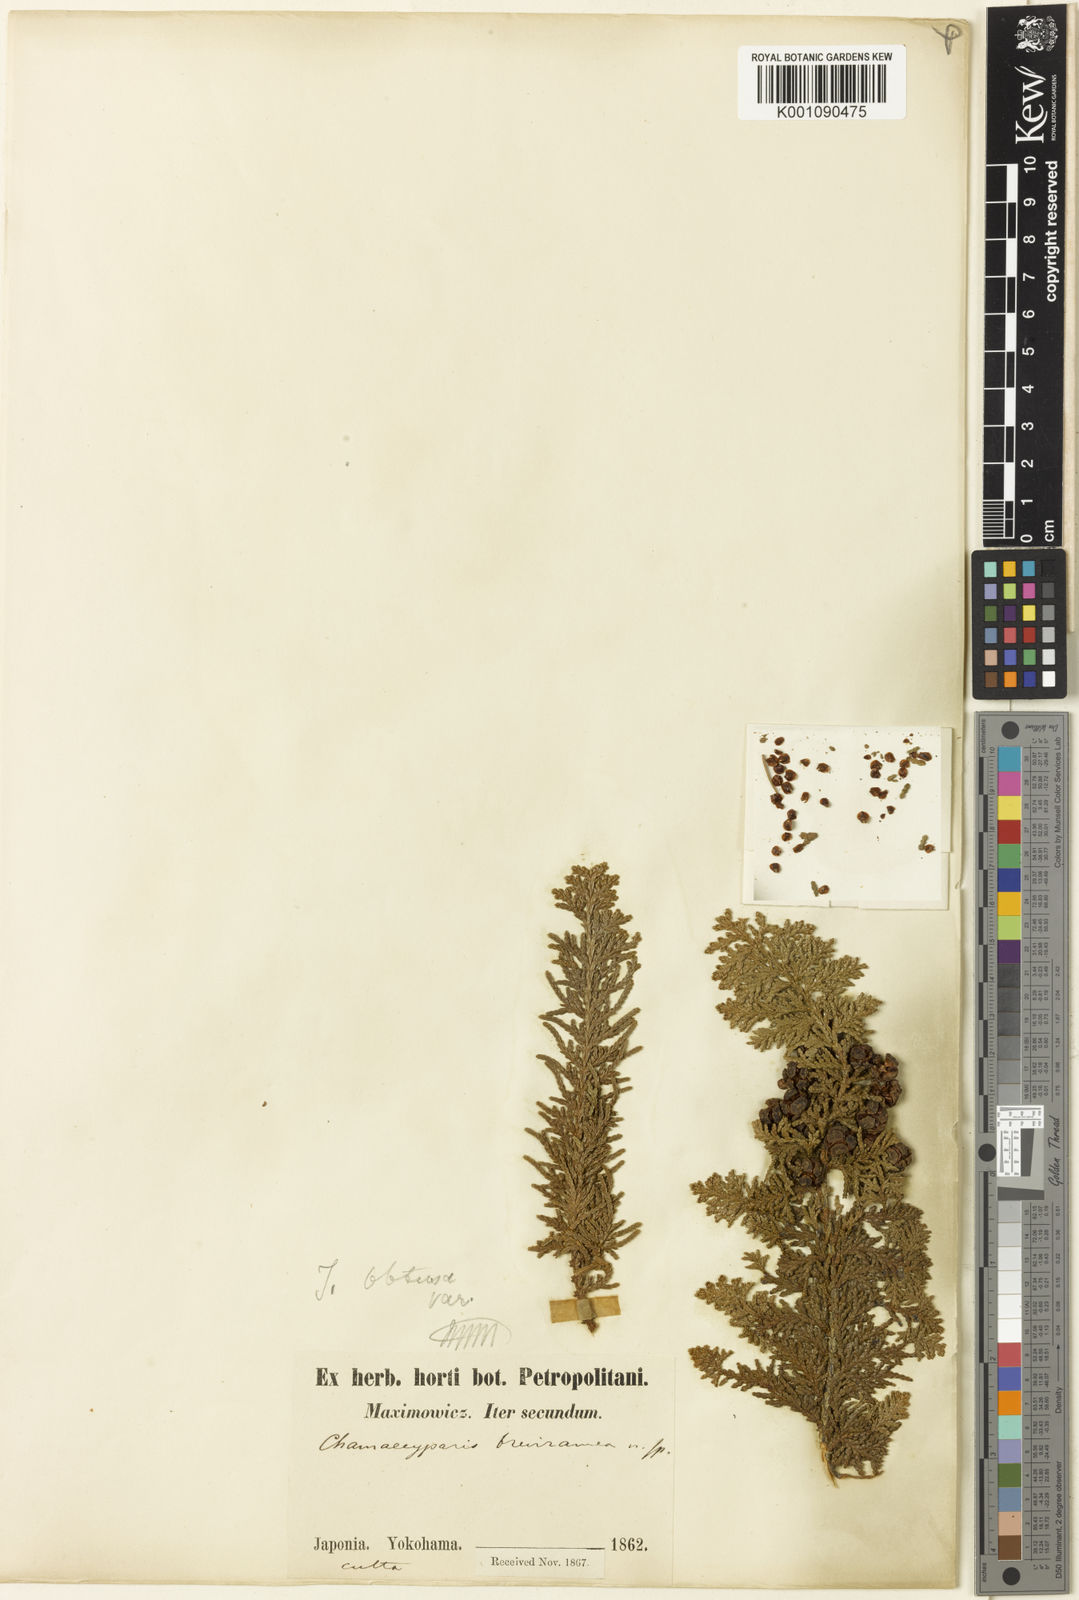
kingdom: Plantae
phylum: Tracheophyta
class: Pinopsida
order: Pinales
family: Cupressaceae
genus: Chamaecyparis
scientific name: Chamaecyparis obtusa
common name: Hinoki false cypress
